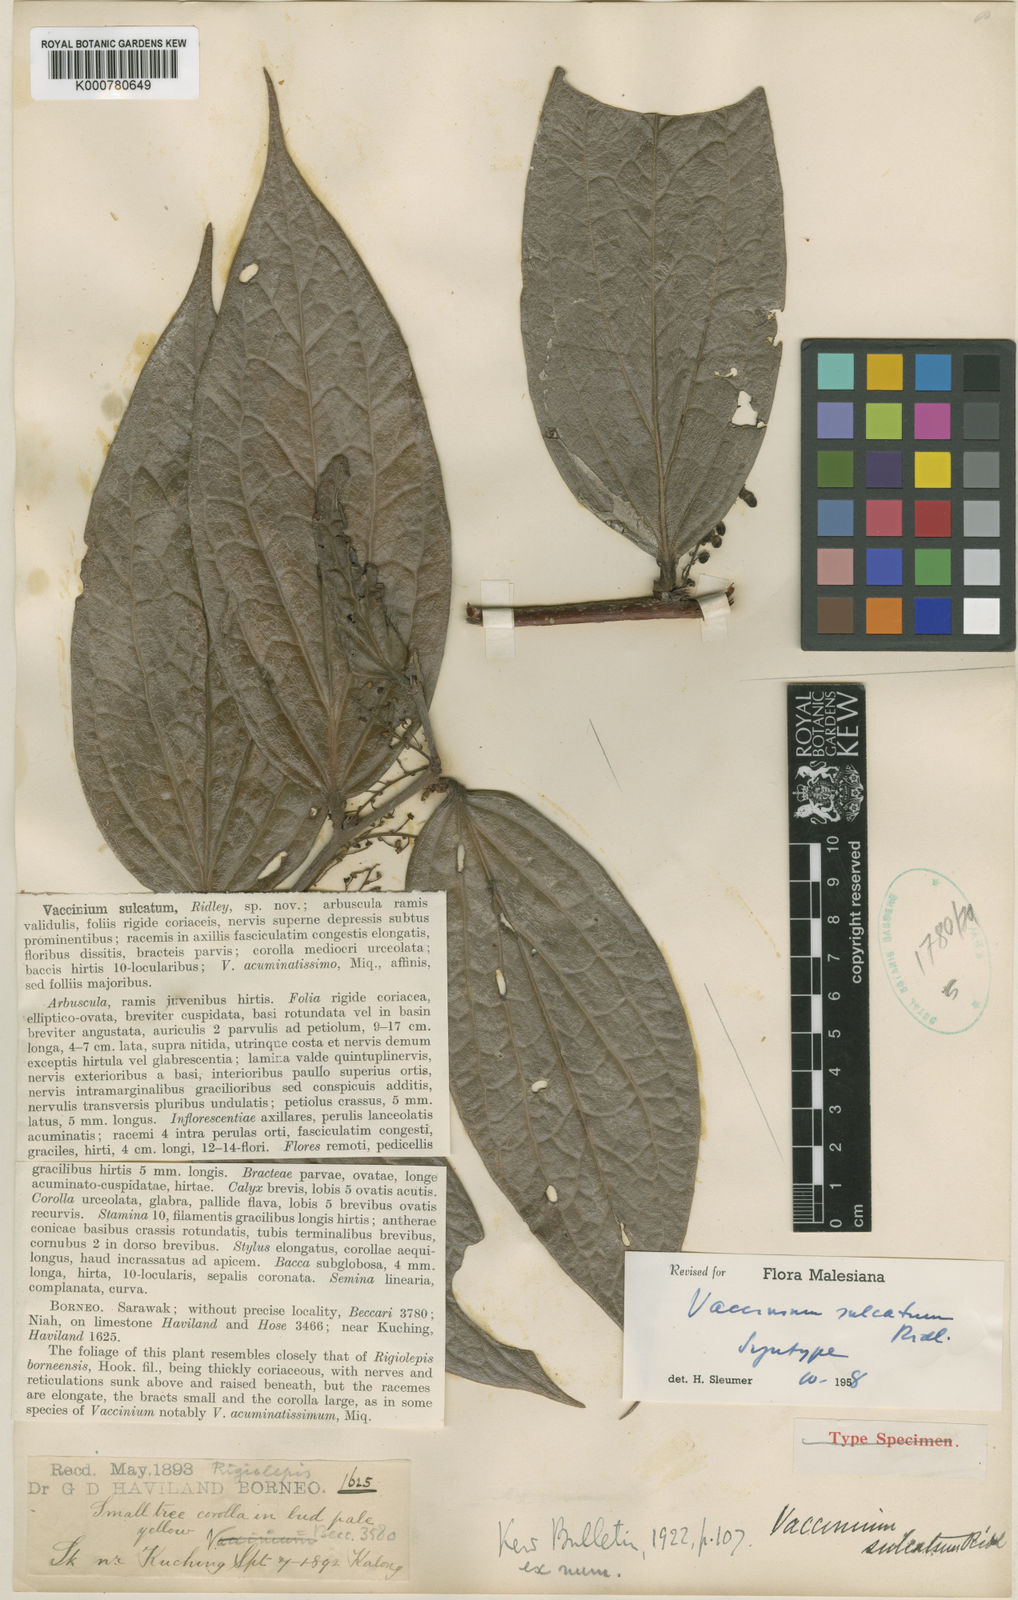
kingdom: Plantae
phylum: Tracheophyta
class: Magnoliopsida
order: Ericales
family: Ericaceae
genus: Rigiolepis
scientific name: Rigiolepis sulcata
